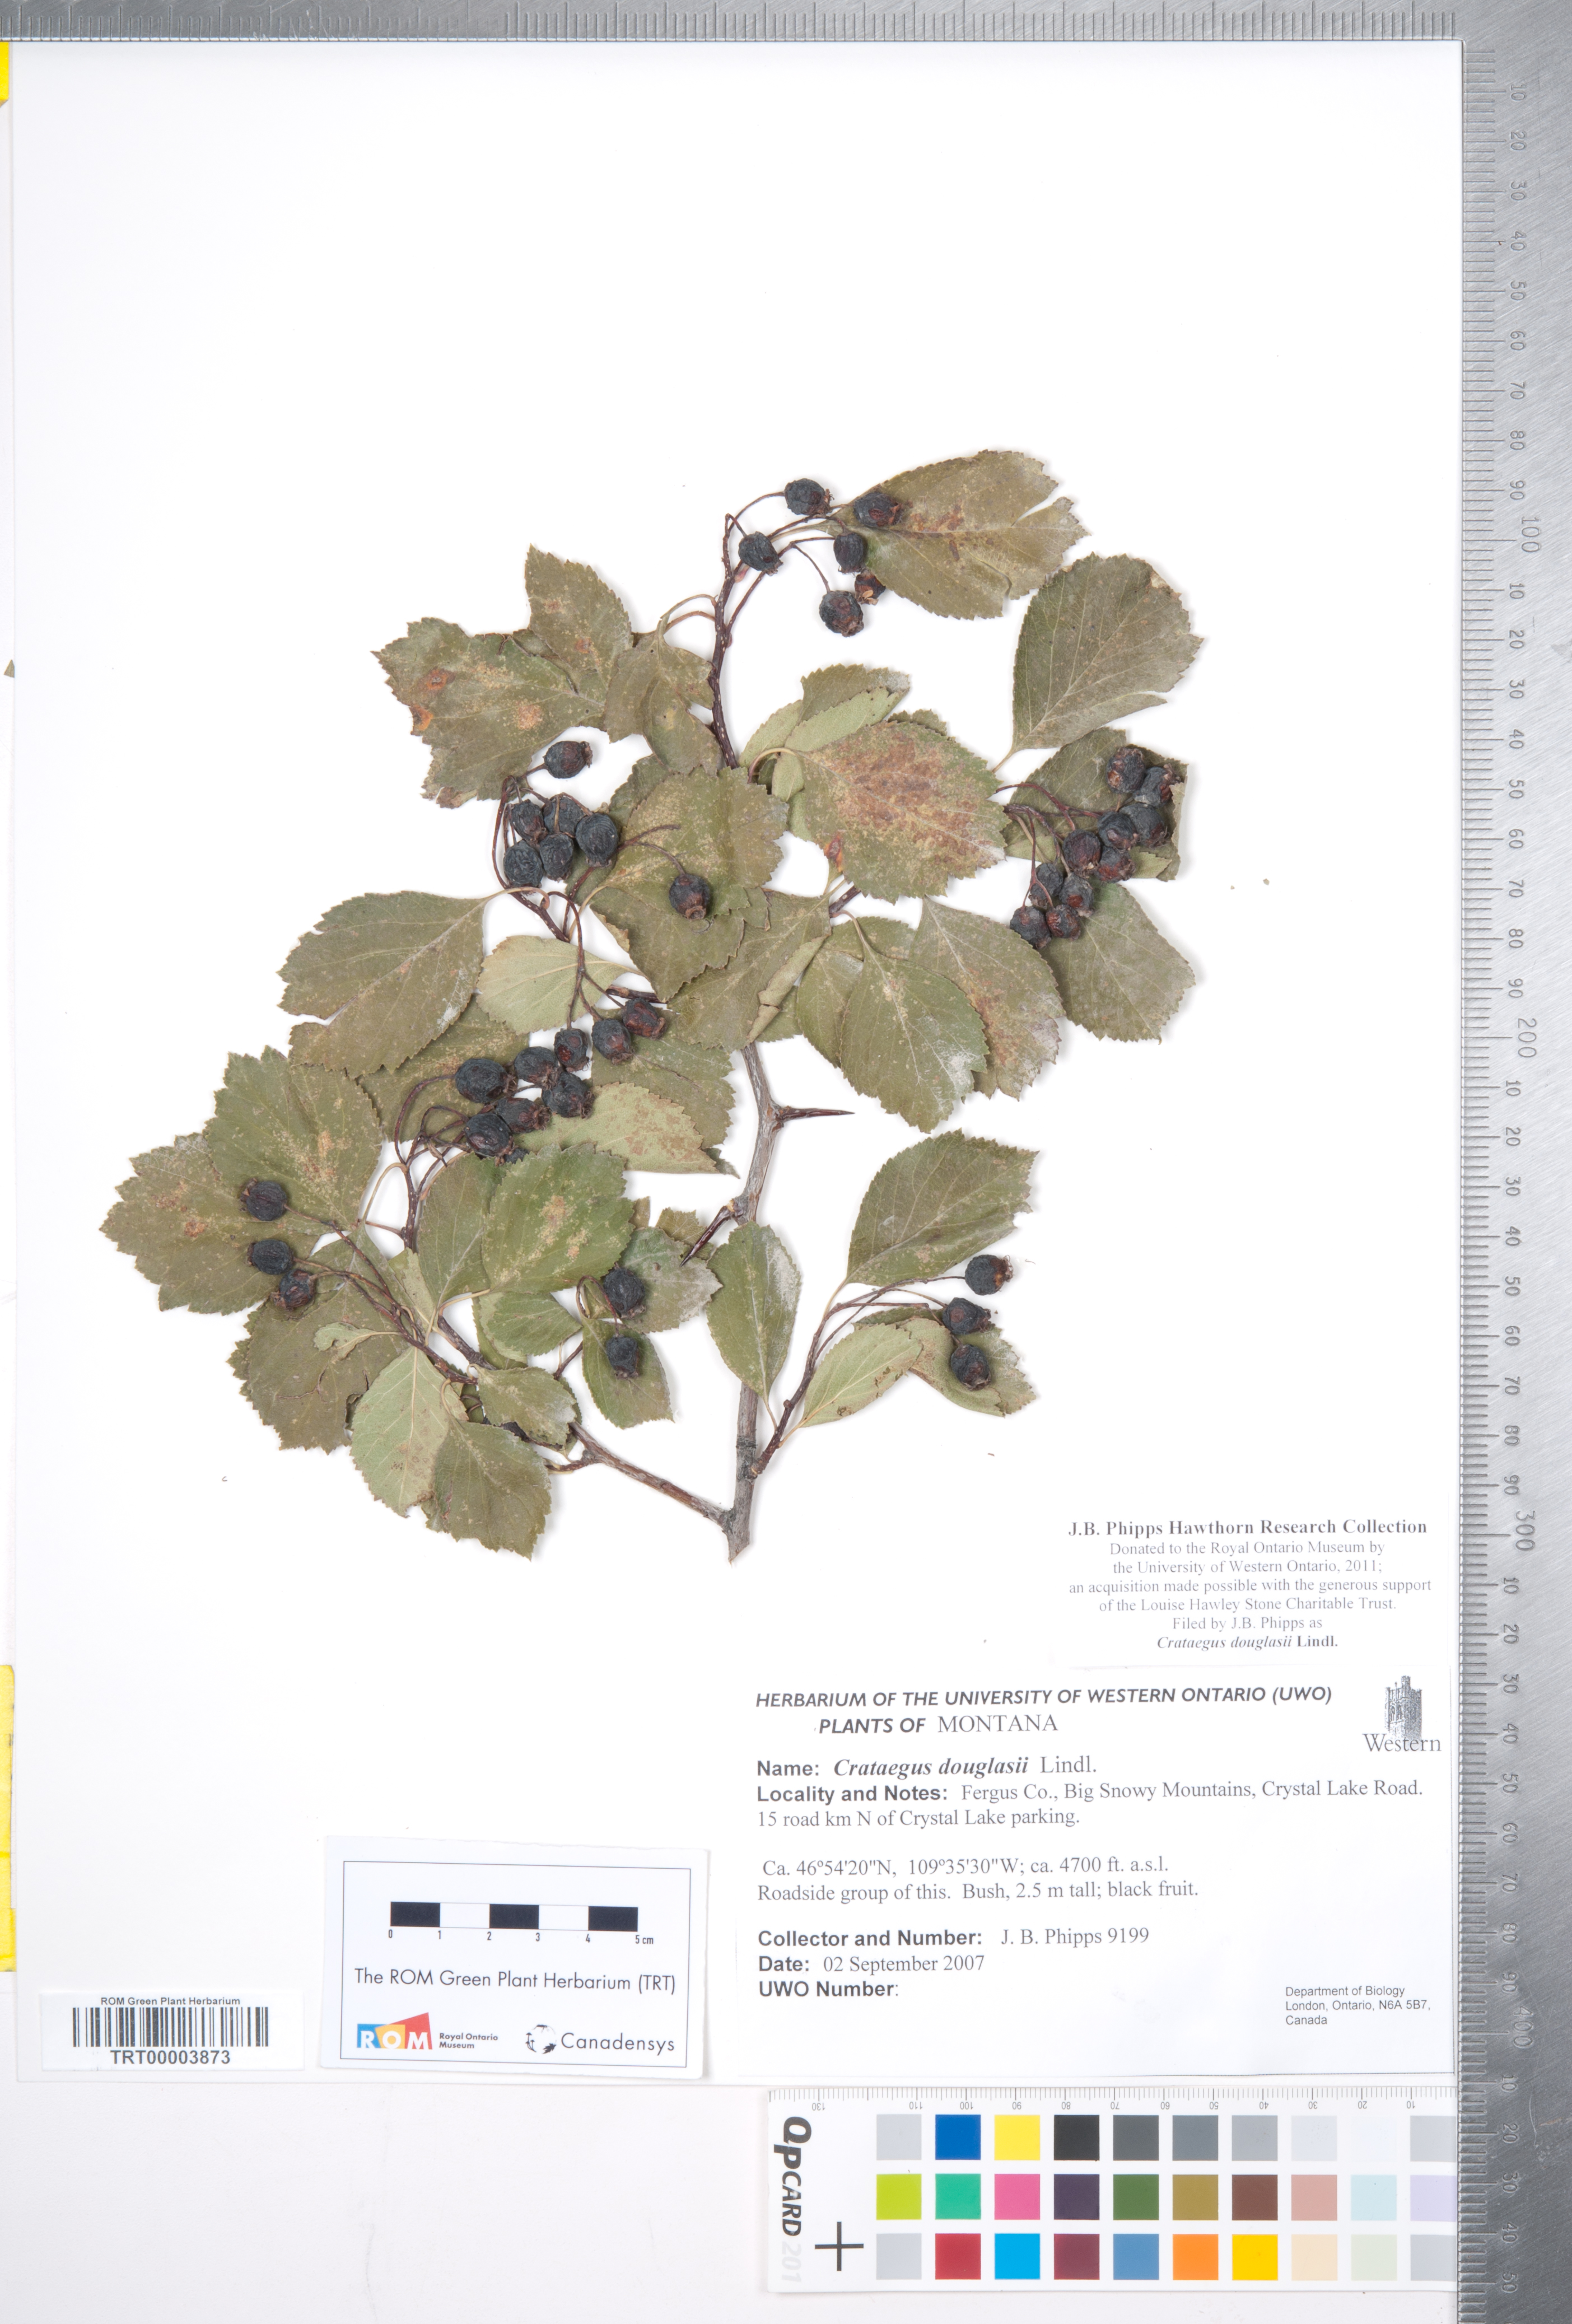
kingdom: Plantae
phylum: Tracheophyta
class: Magnoliopsida
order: Rosales
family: Rosaceae
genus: Crataegus
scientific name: Crataegus douglasii
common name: Black hawthorn
